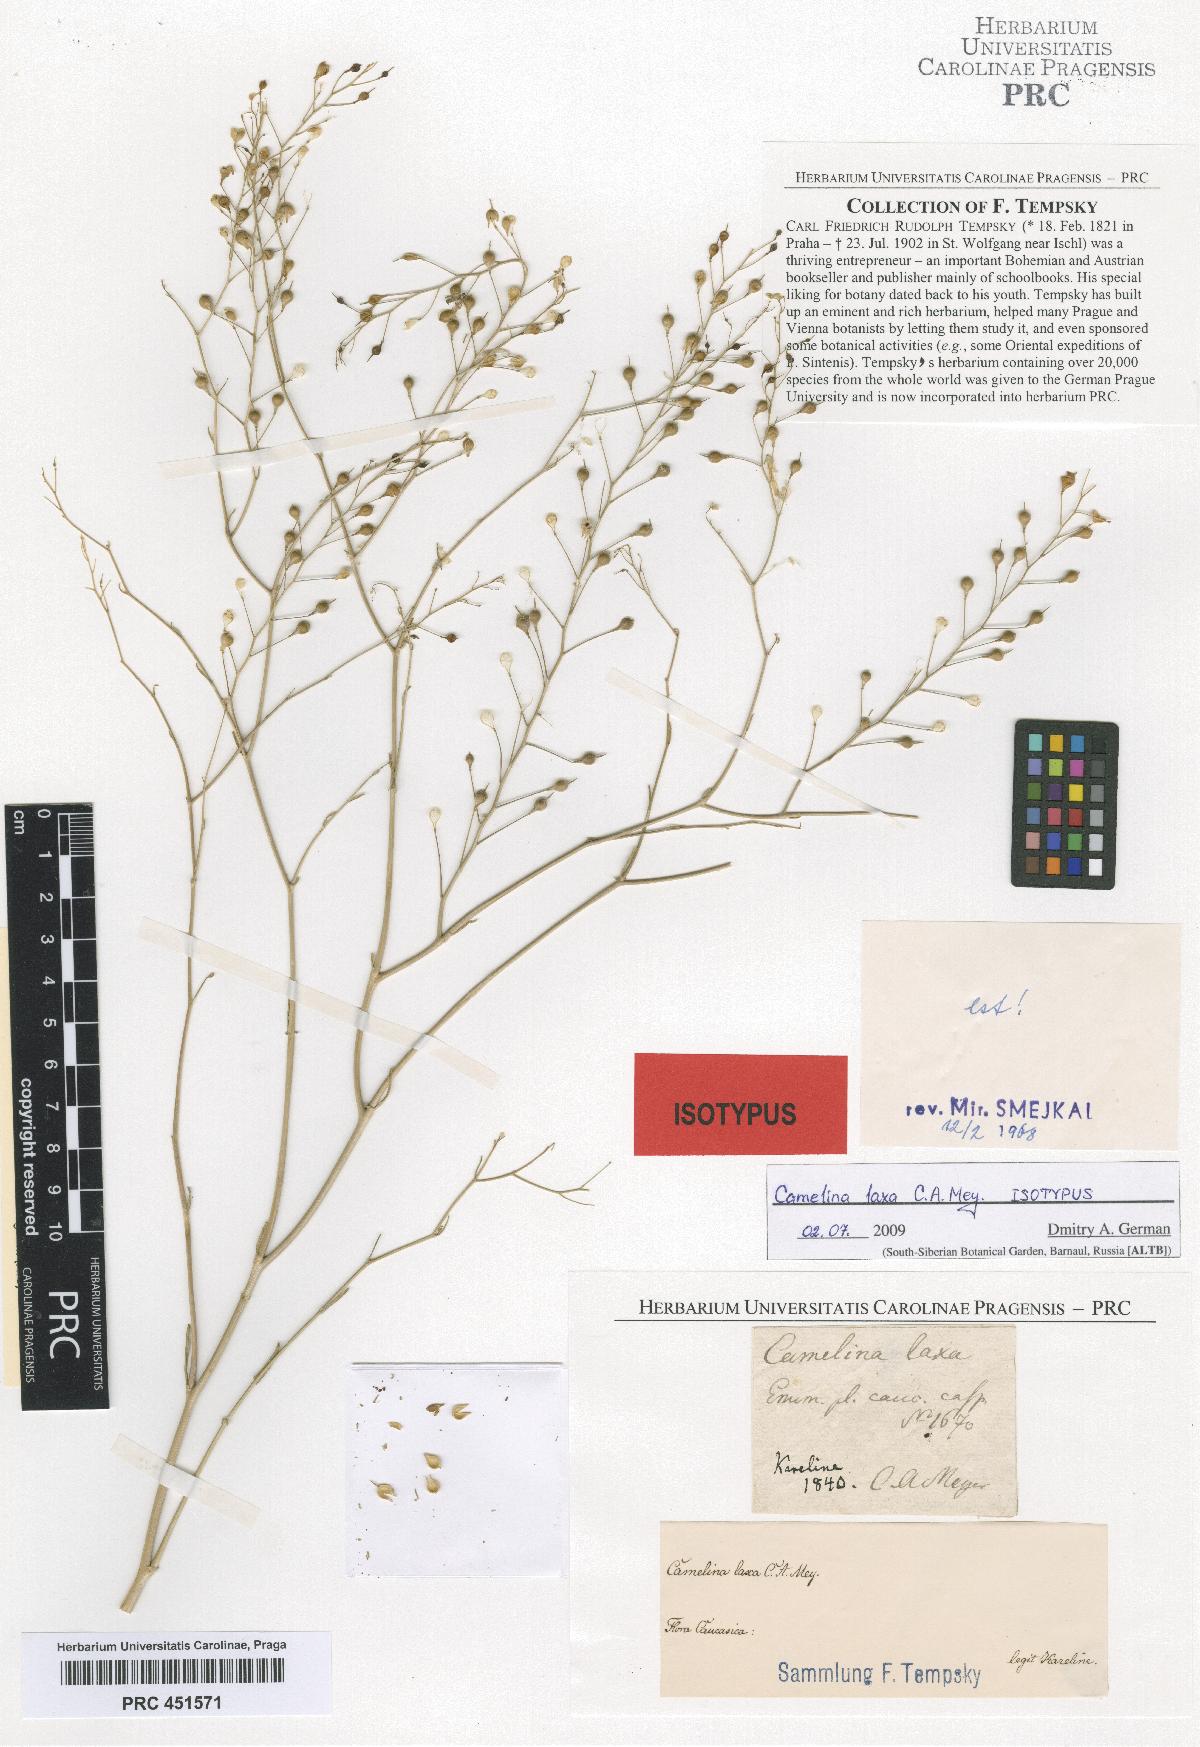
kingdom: Plantae
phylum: Tracheophyta
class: Magnoliopsida
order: Brassicales
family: Brassicaceae
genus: Camelina
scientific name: Camelina laxa
